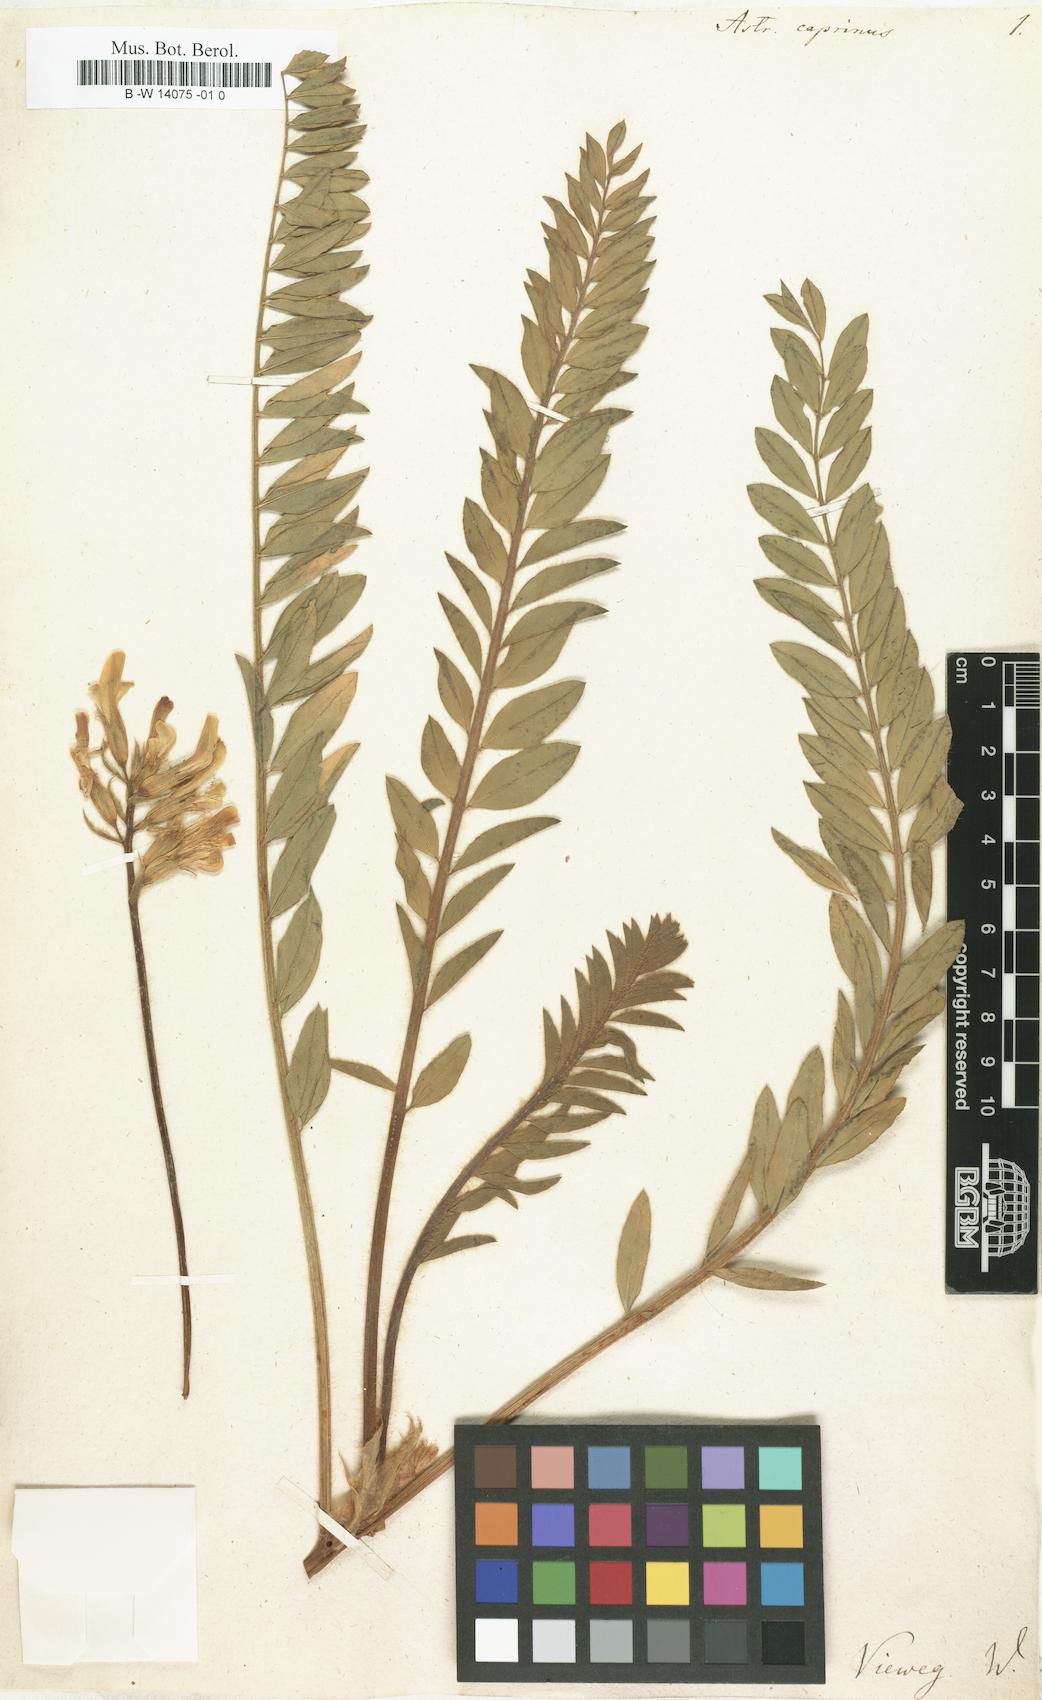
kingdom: Plantae
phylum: Tracheophyta
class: Magnoliopsida
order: Fabales
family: Fabaceae
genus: Astragalus
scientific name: Astragalus caprinus
